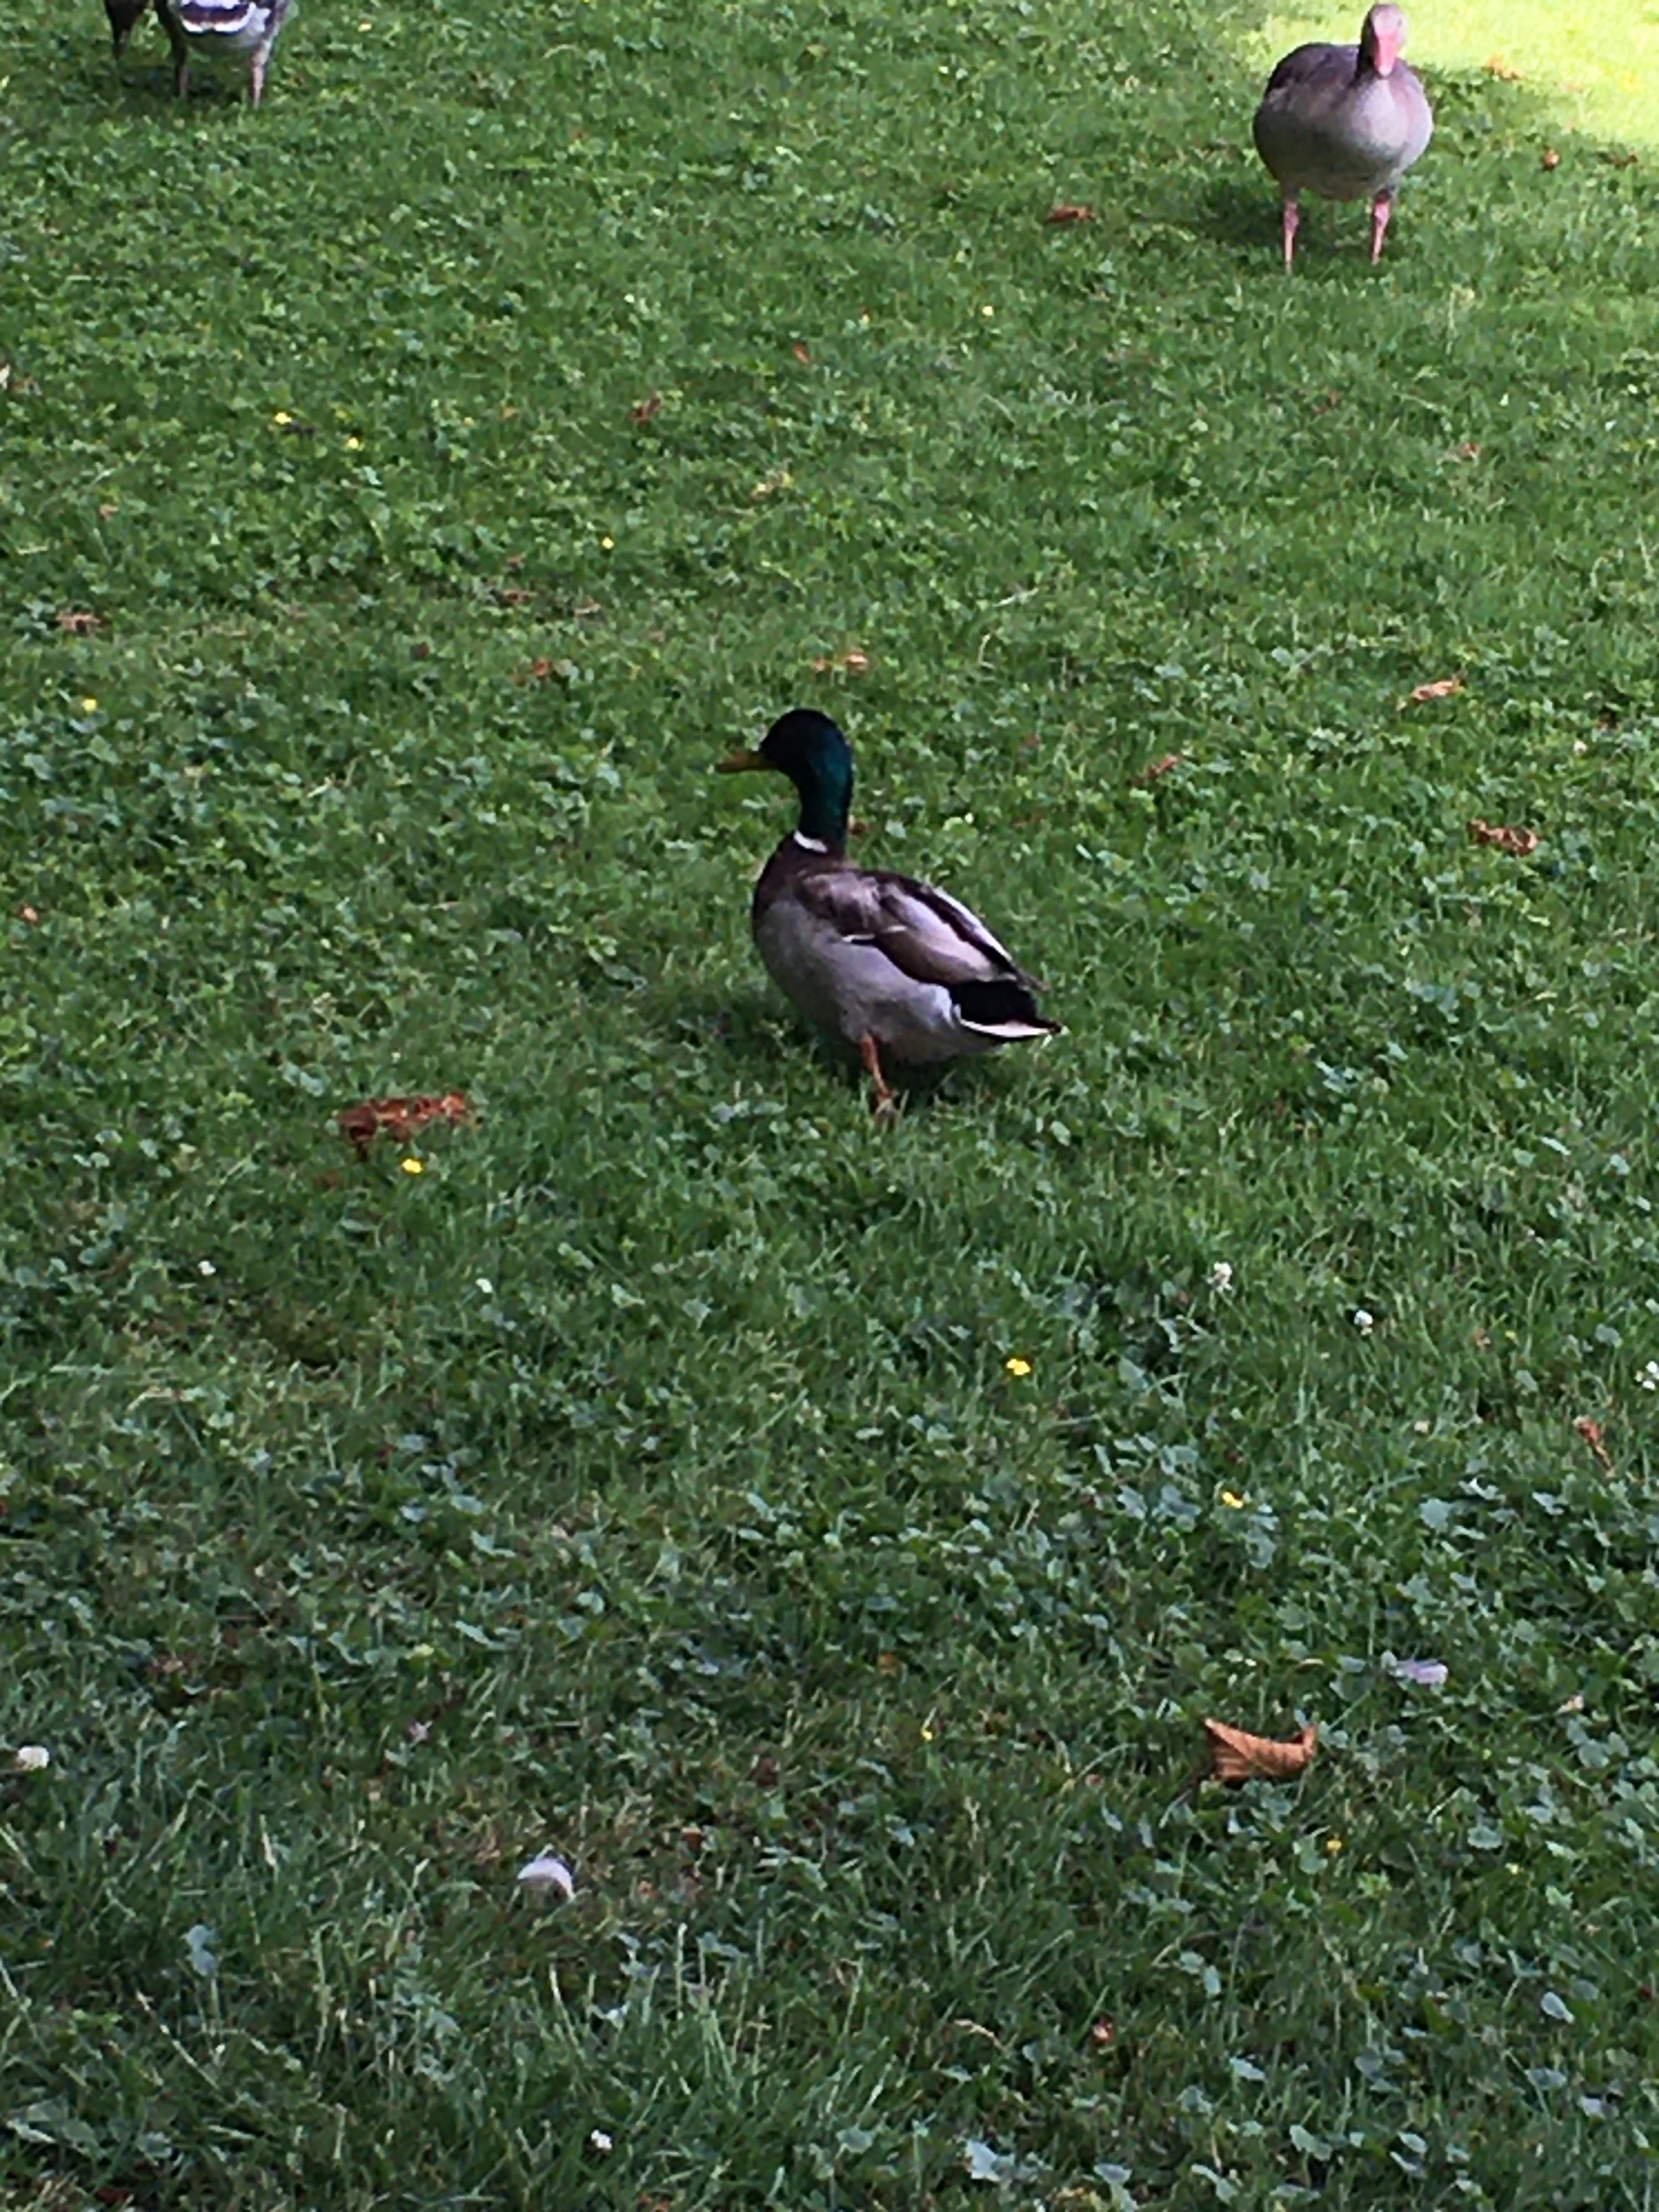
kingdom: Animalia
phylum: Chordata
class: Aves
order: Anseriformes
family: Anatidae
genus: Anas
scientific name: Anas platyrhynchos
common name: Gråand
